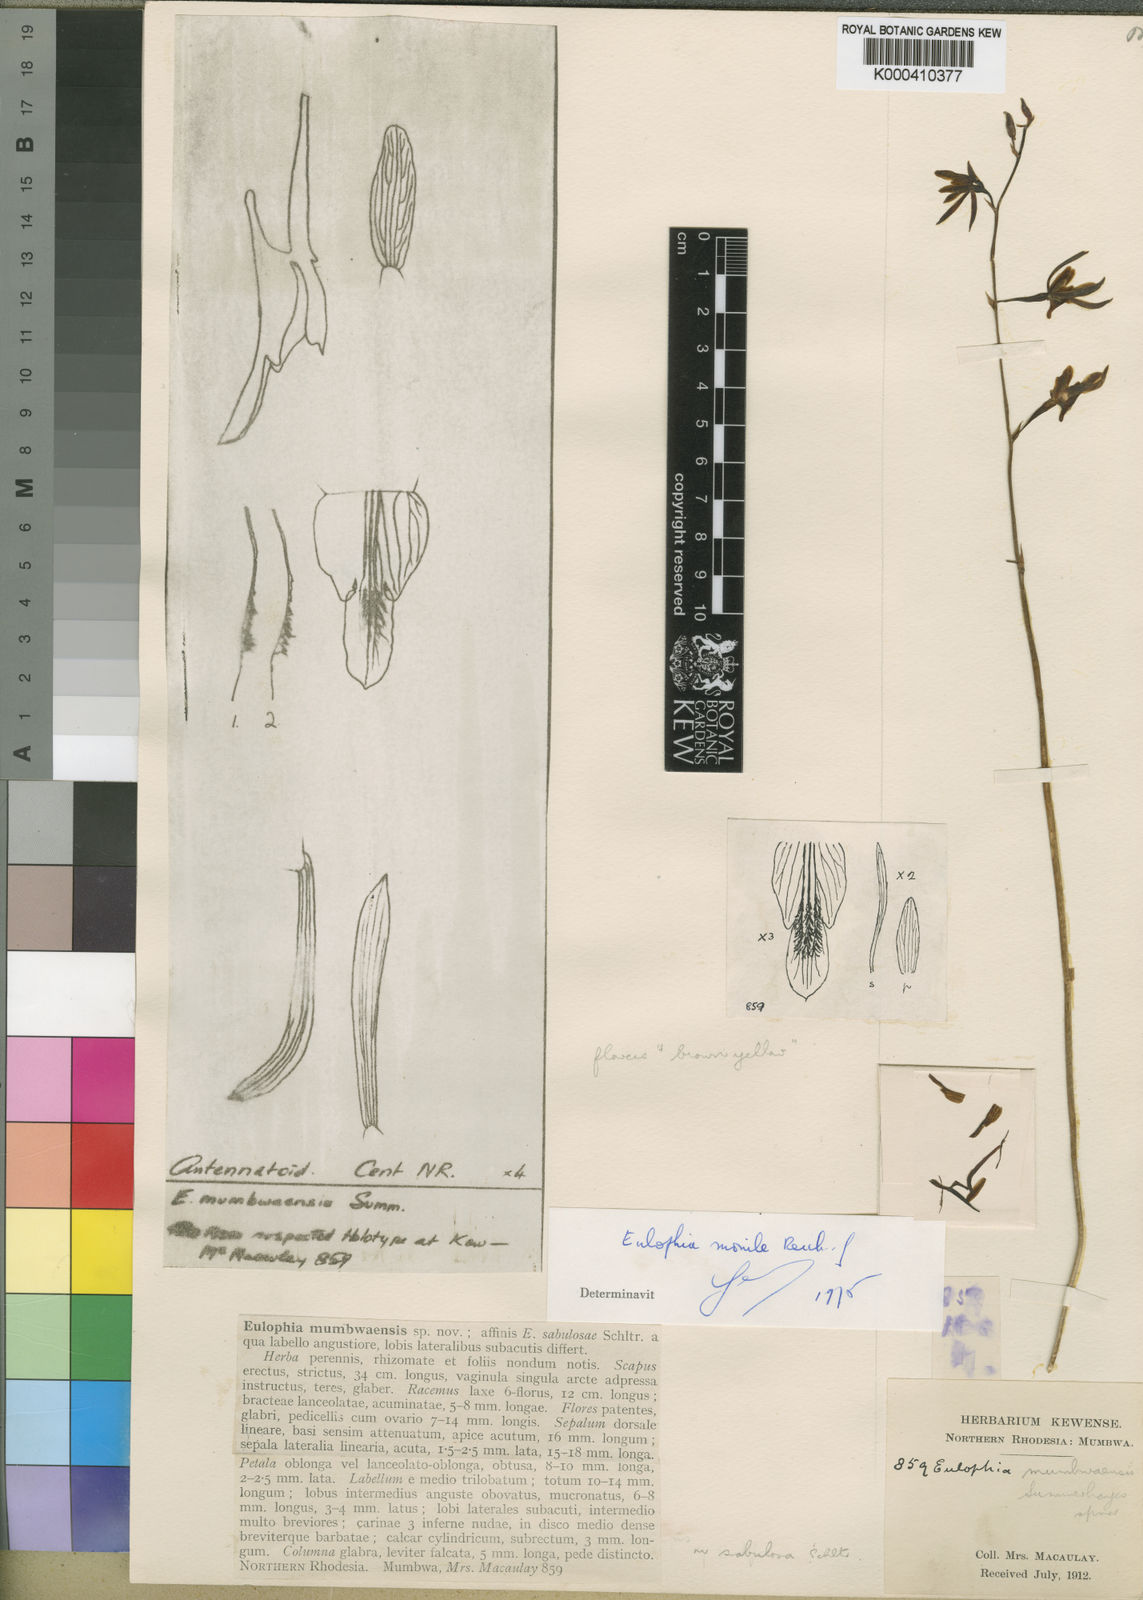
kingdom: Plantae
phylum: Tracheophyta
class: Liliopsida
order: Asparagales
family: Orchidaceae
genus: Eulophia
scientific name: Eulophia mumbwaensis
